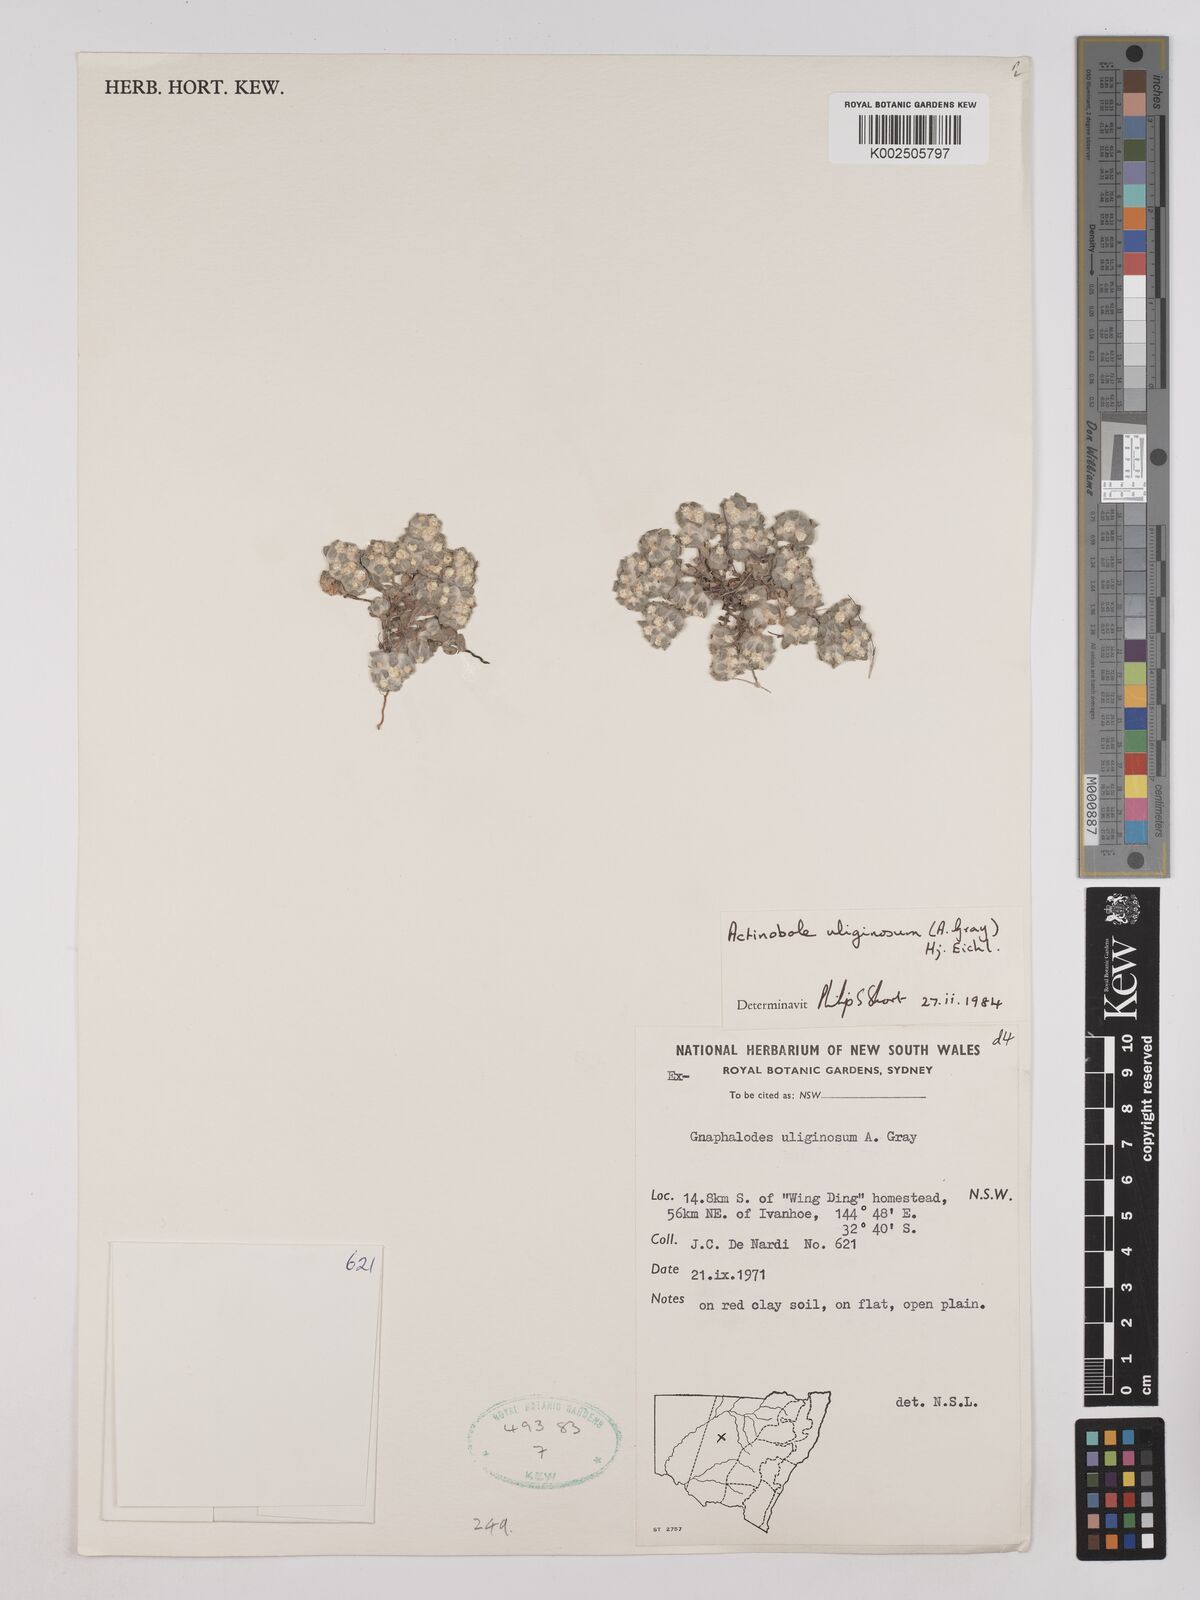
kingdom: Plantae
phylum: Tracheophyta
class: Magnoliopsida
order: Asterales
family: Asteraceae
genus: Actinobole
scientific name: Actinobole uliginosum
